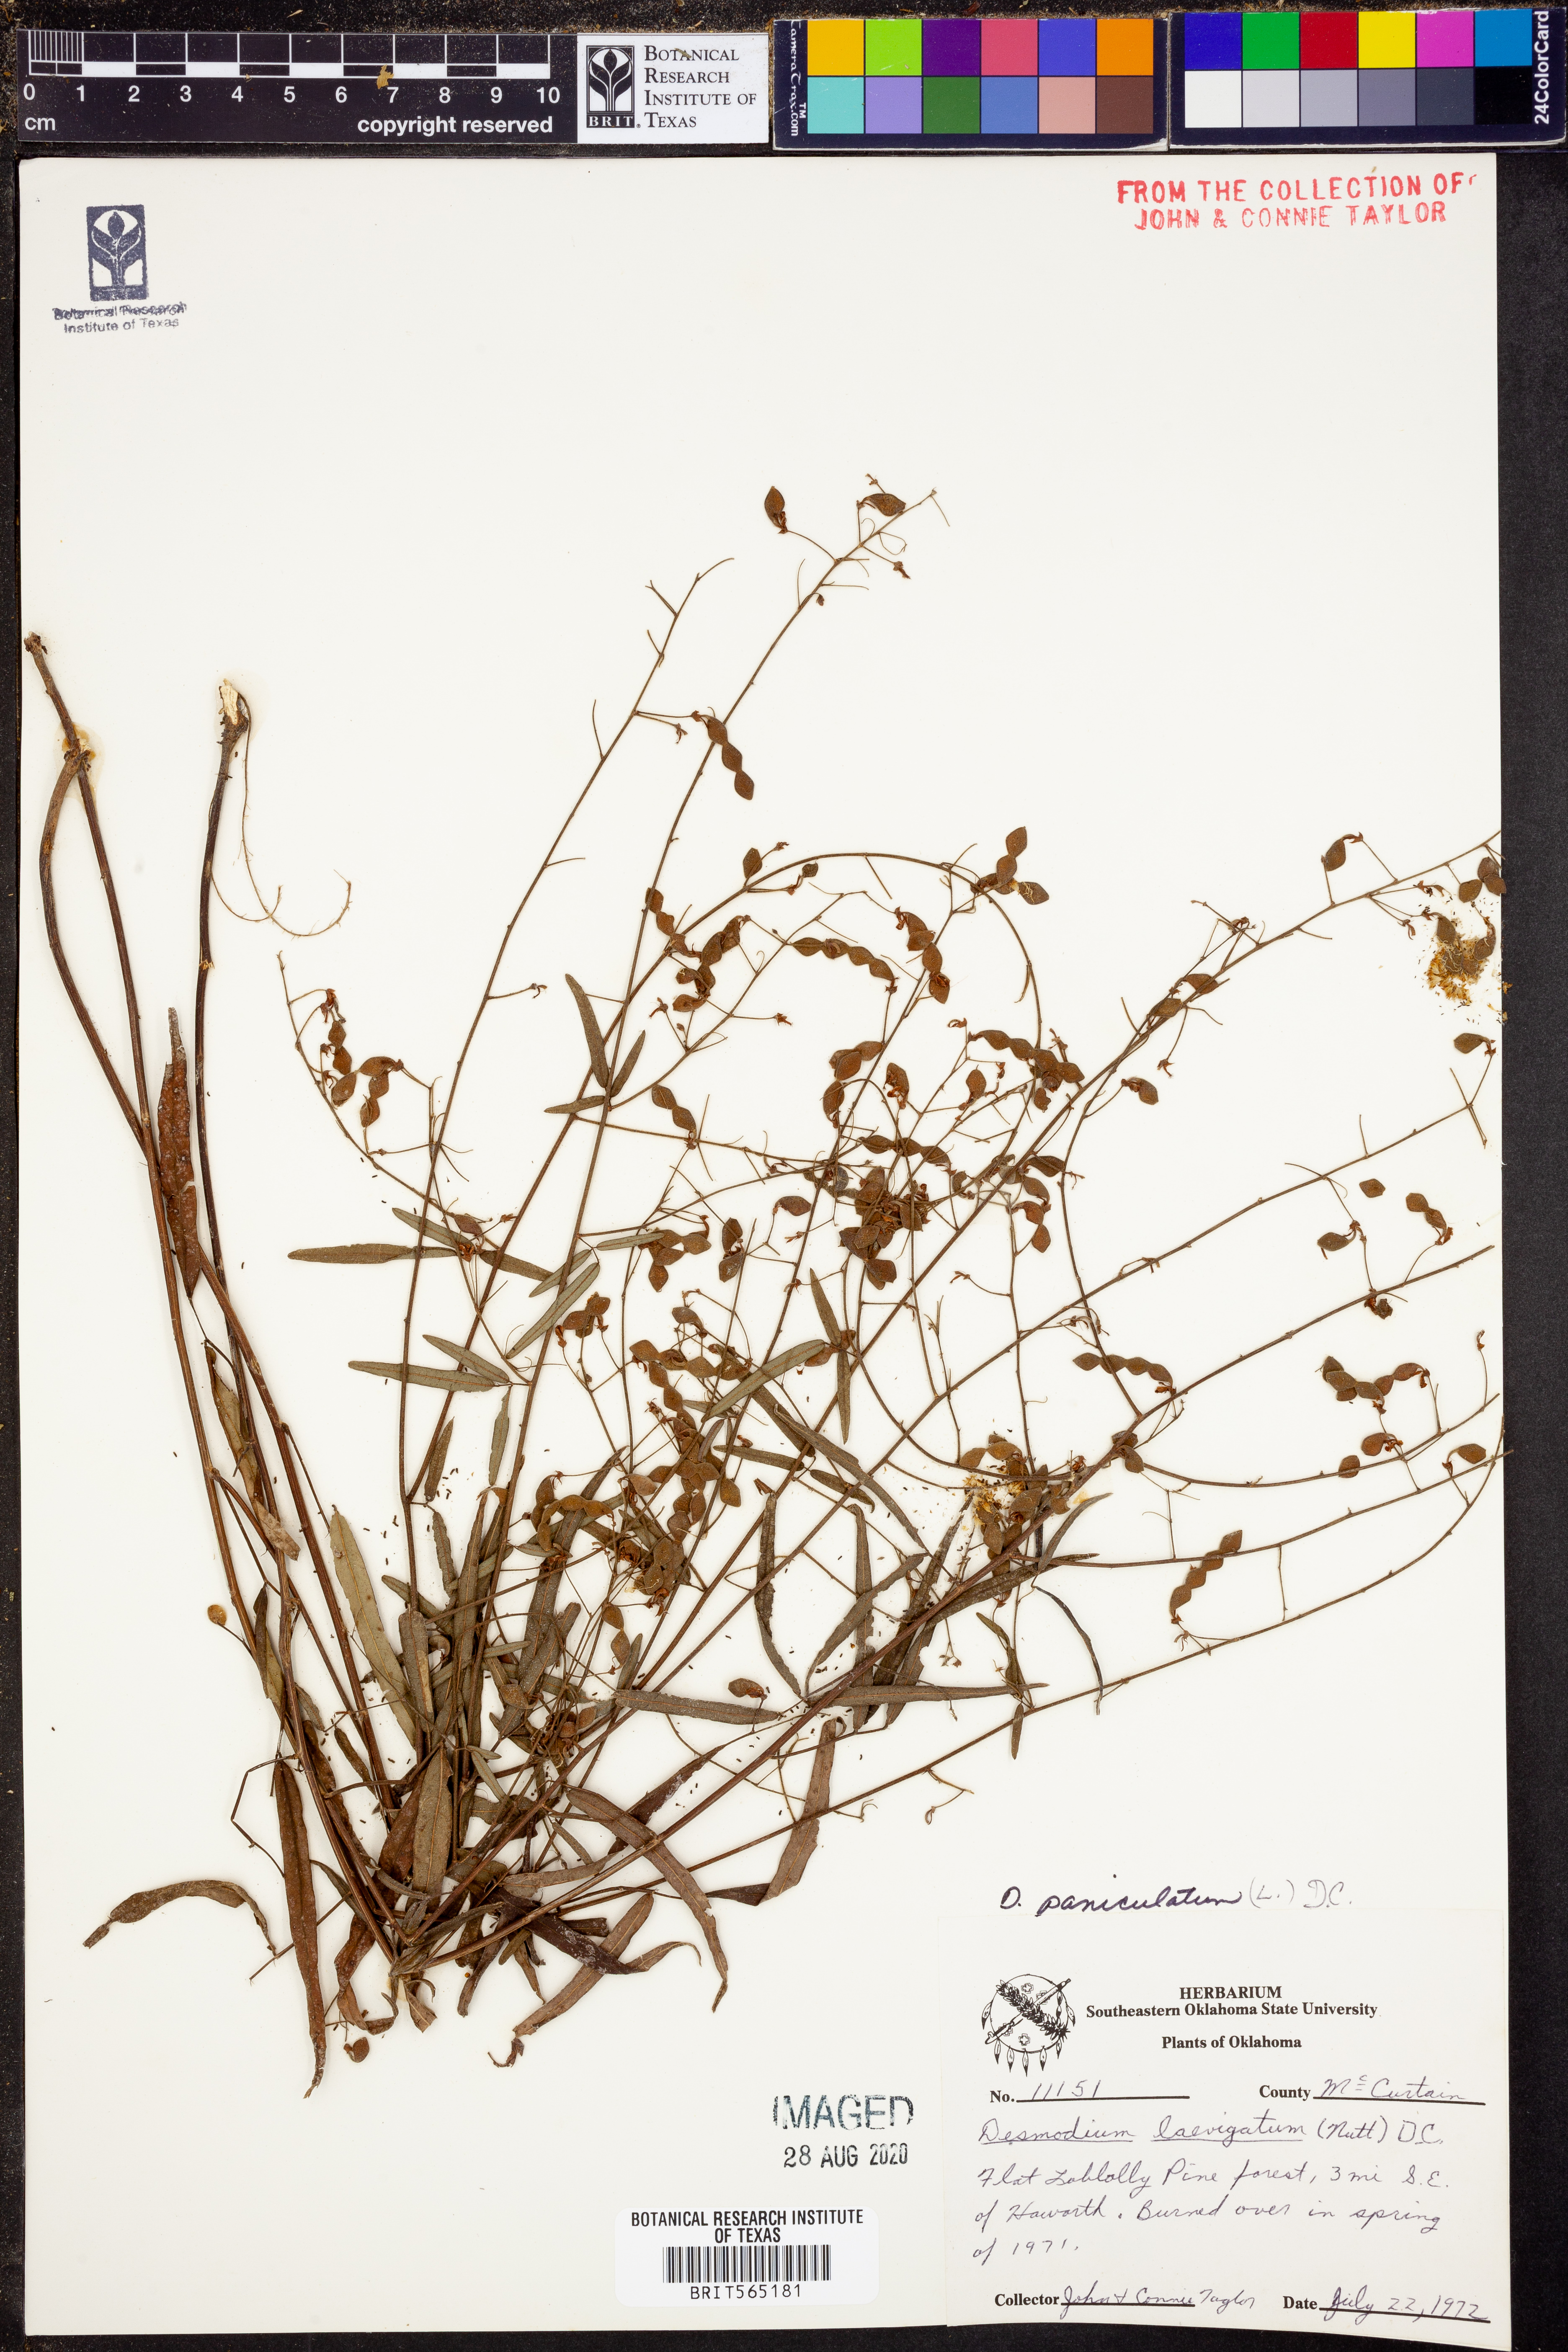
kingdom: Plantae
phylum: Tracheophyta
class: Magnoliopsida
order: Fabales
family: Fabaceae
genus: Desmodium
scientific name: Desmodium paniculatum
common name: Panicled tick-clover
